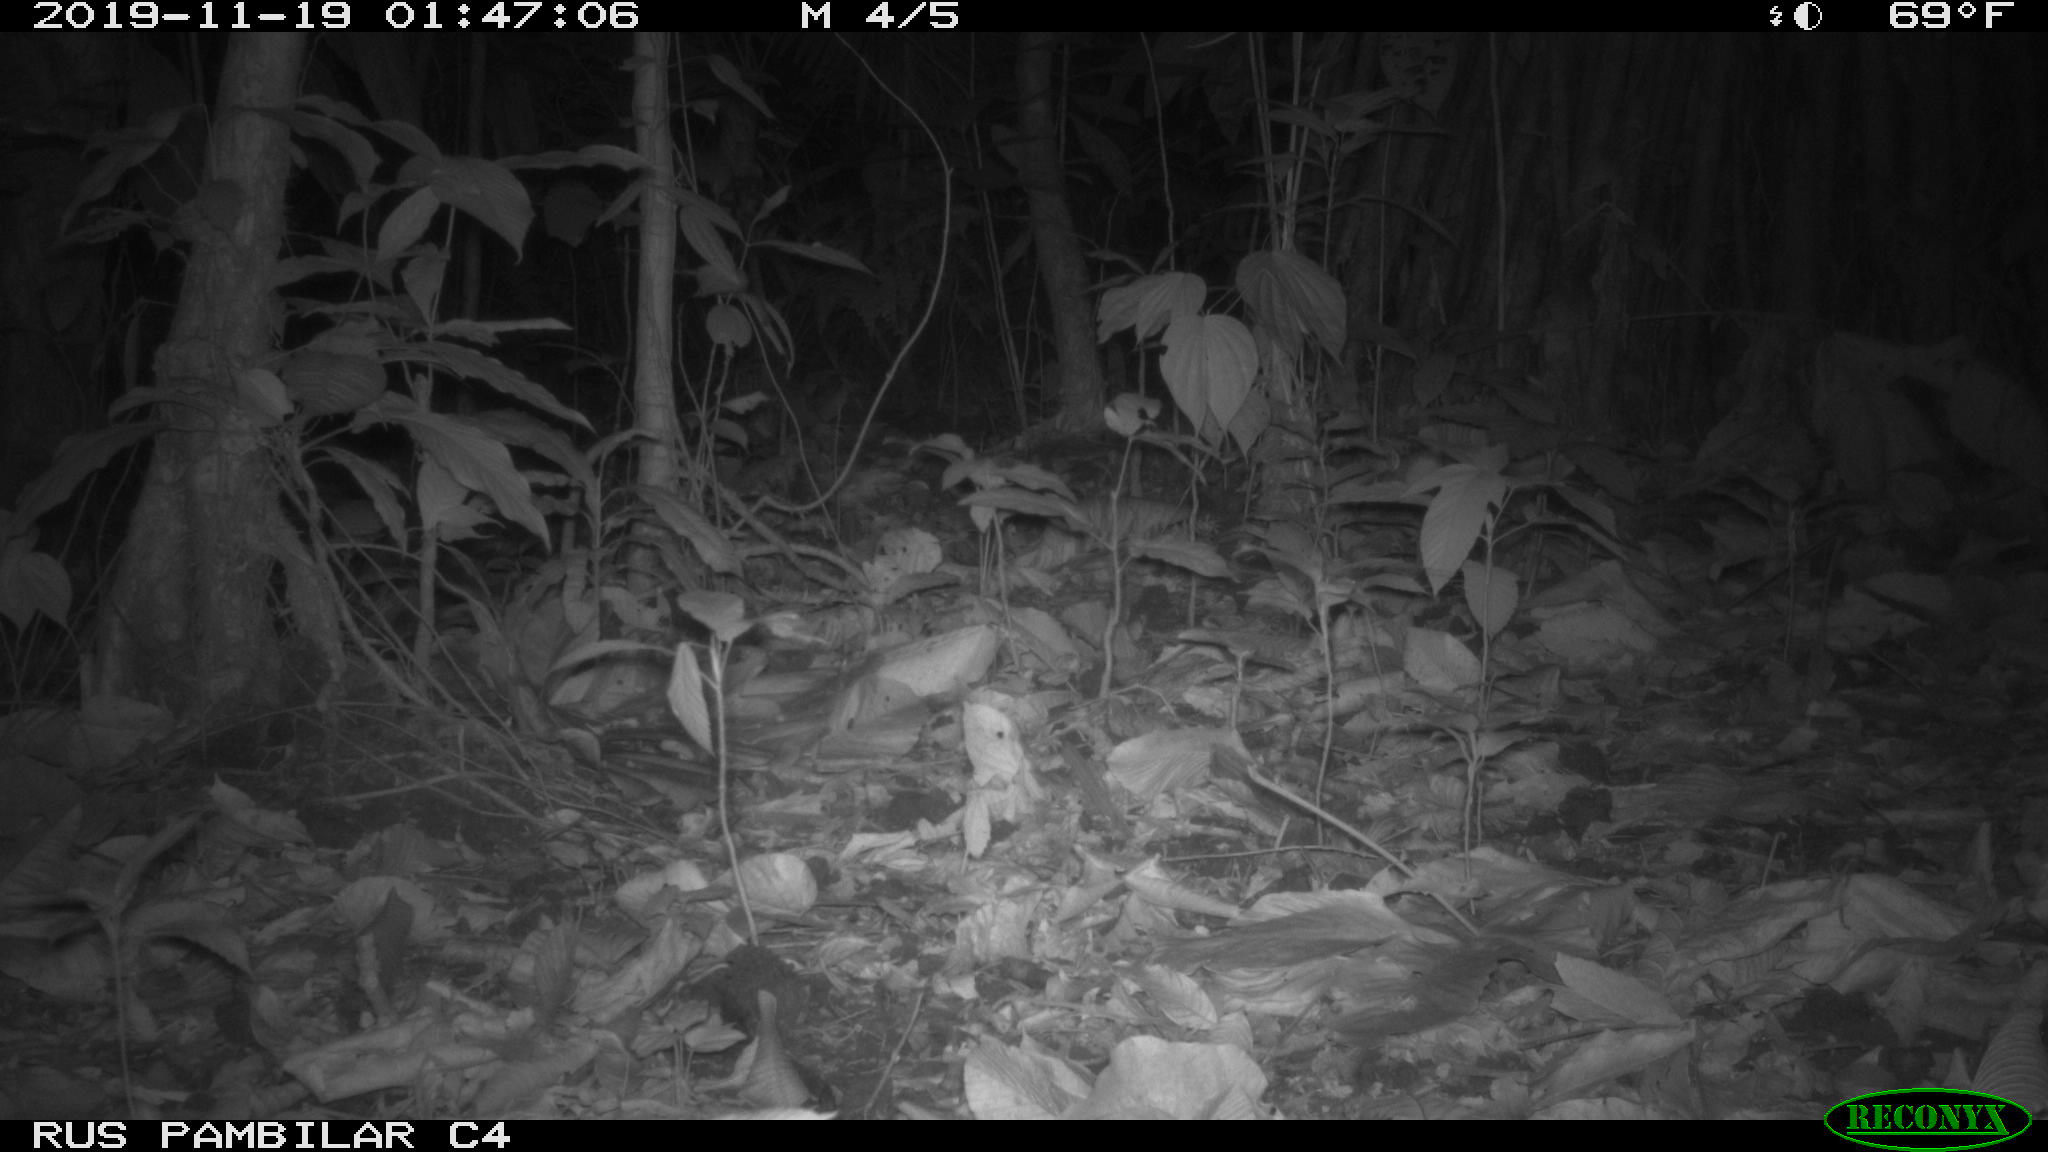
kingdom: Animalia
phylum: Chordata
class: Mammalia
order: Rodentia
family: Sciuridae
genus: Sciurus
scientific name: Sciurus granatensis
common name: Red-tailed squirrel
